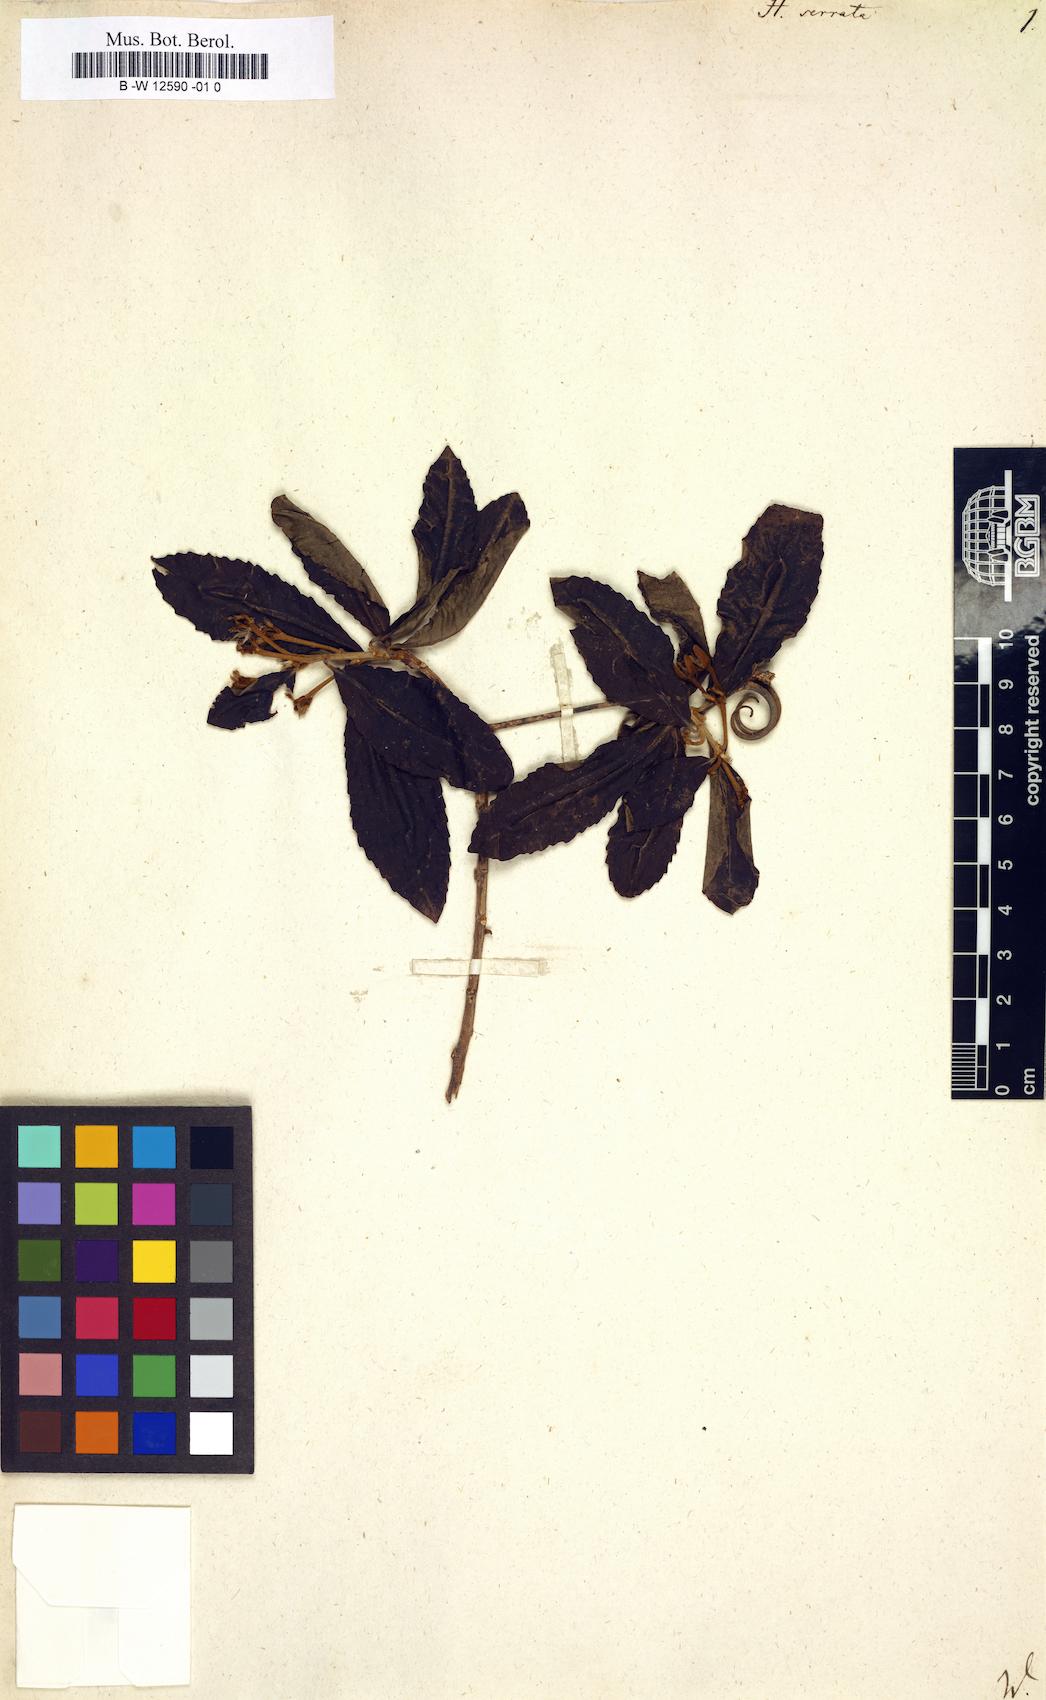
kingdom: Plantae
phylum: Tracheophyta
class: Magnoliopsida
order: Malpighiales
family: Linaceae
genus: Hugonia
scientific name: Hugonia serrata
